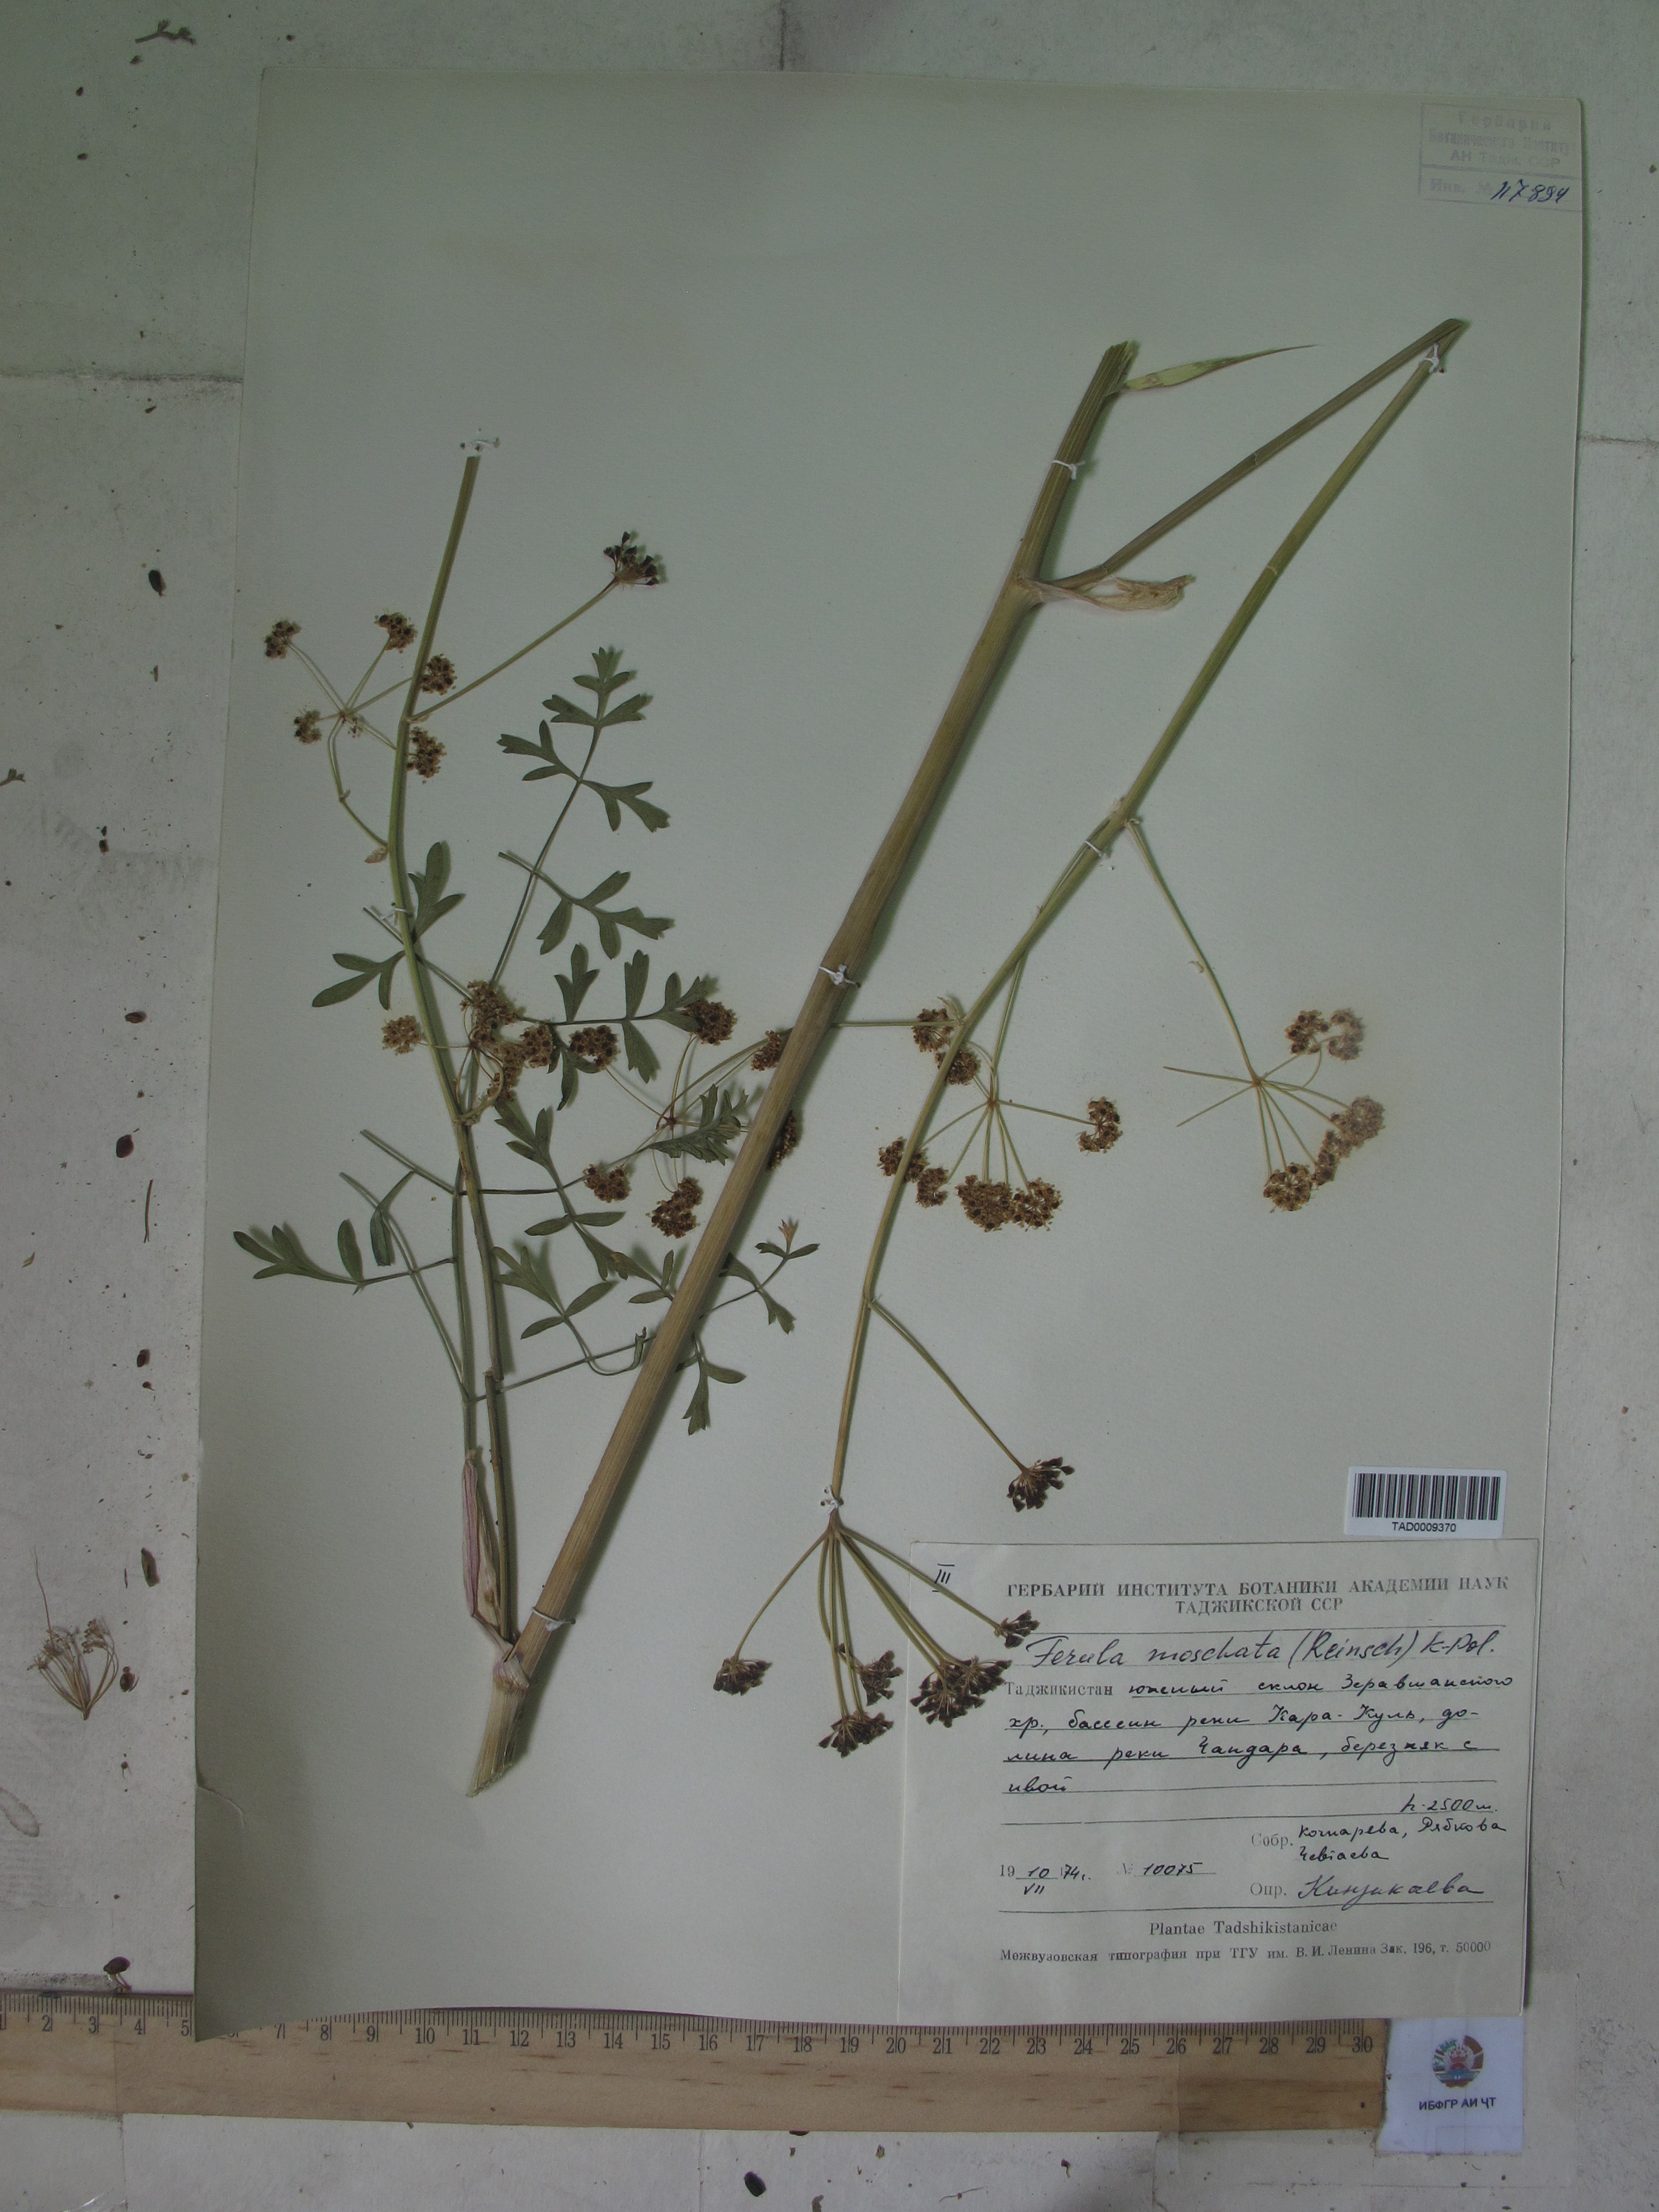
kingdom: Plantae
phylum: Tracheophyta
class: Magnoliopsida
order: Apiales
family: Apiaceae
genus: Ferula
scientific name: Ferula moschata
